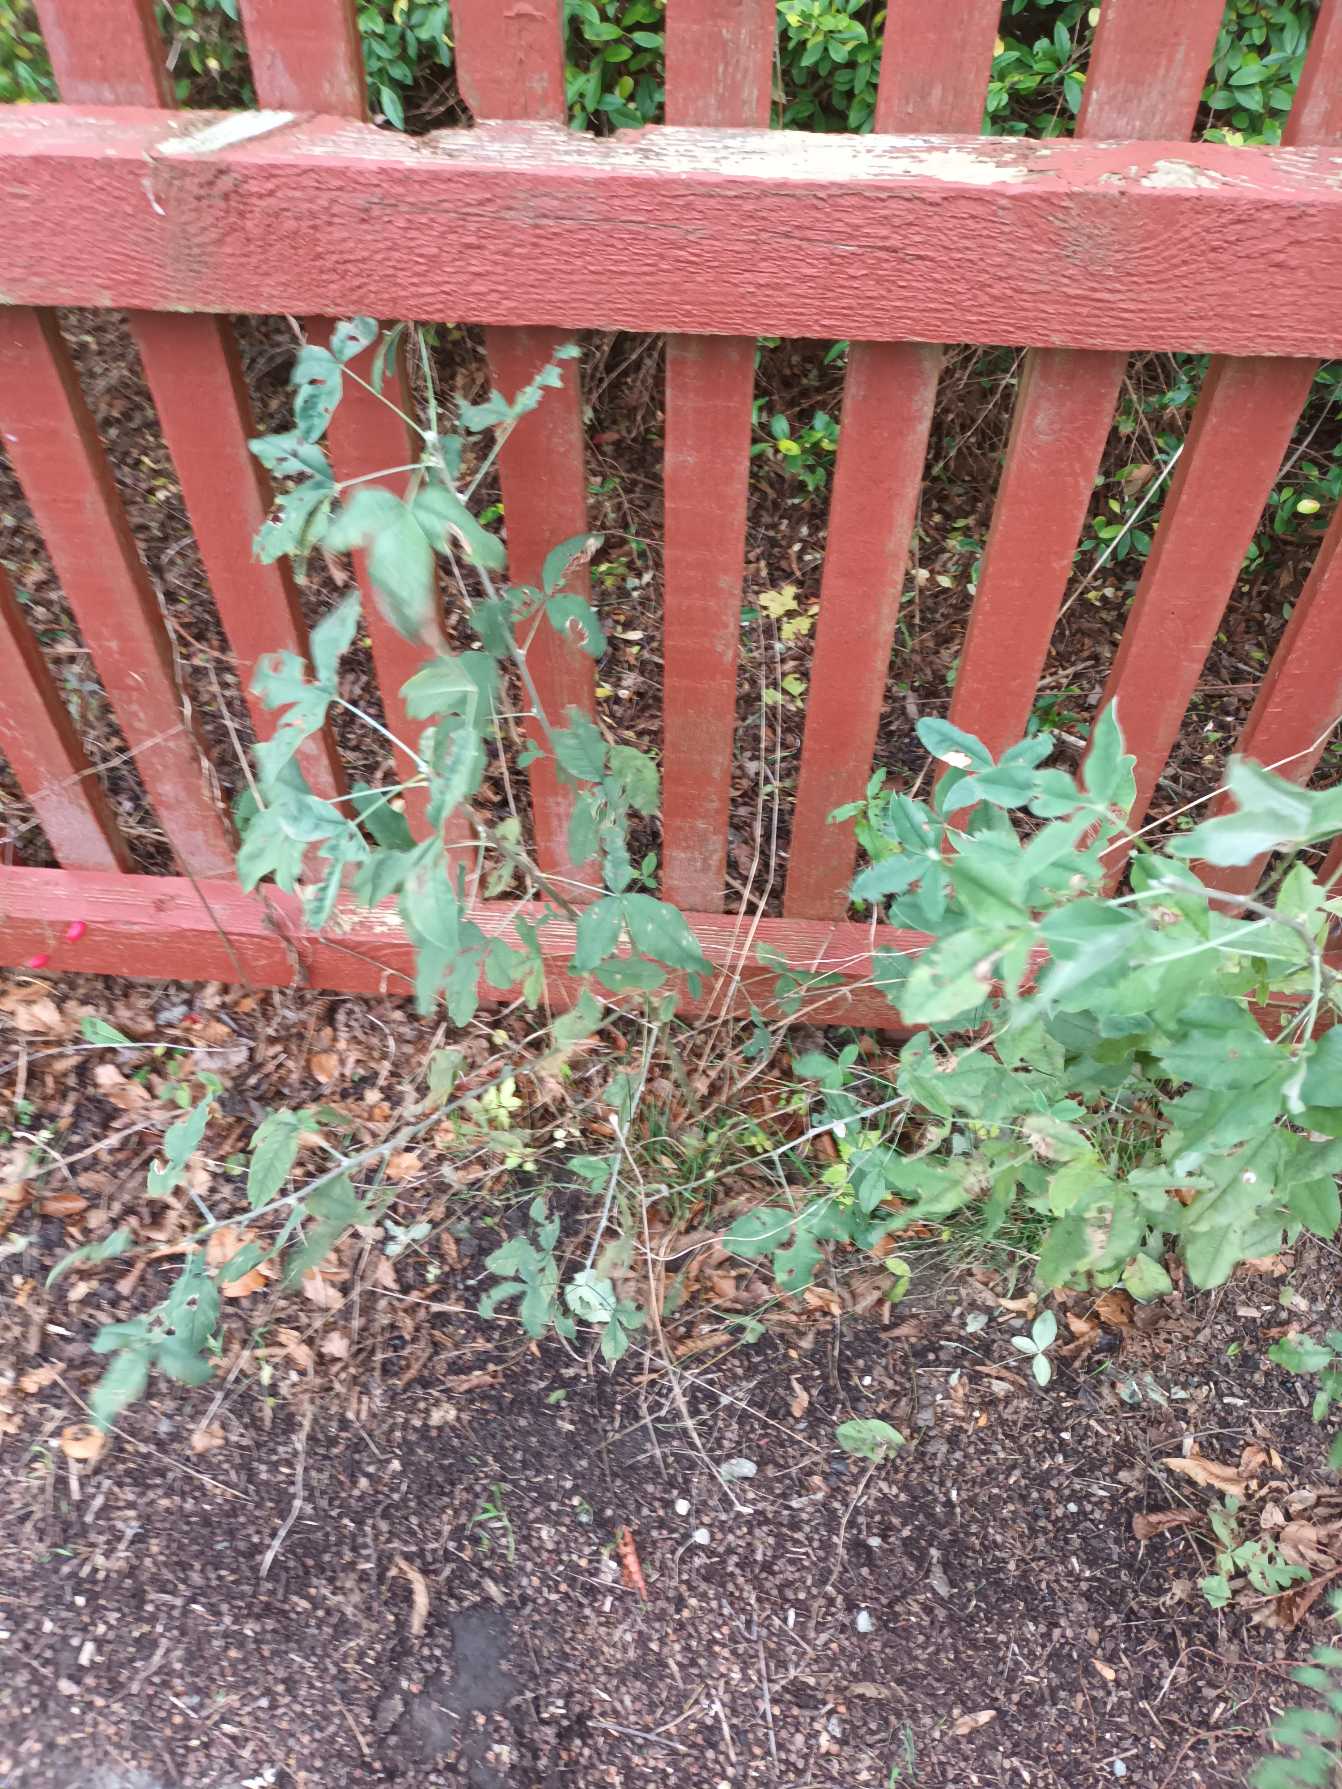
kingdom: Plantae
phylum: Tracheophyta
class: Magnoliopsida
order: Fabales
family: Fabaceae
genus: Laburnum
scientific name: Laburnum anagyroides
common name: Guldregn
